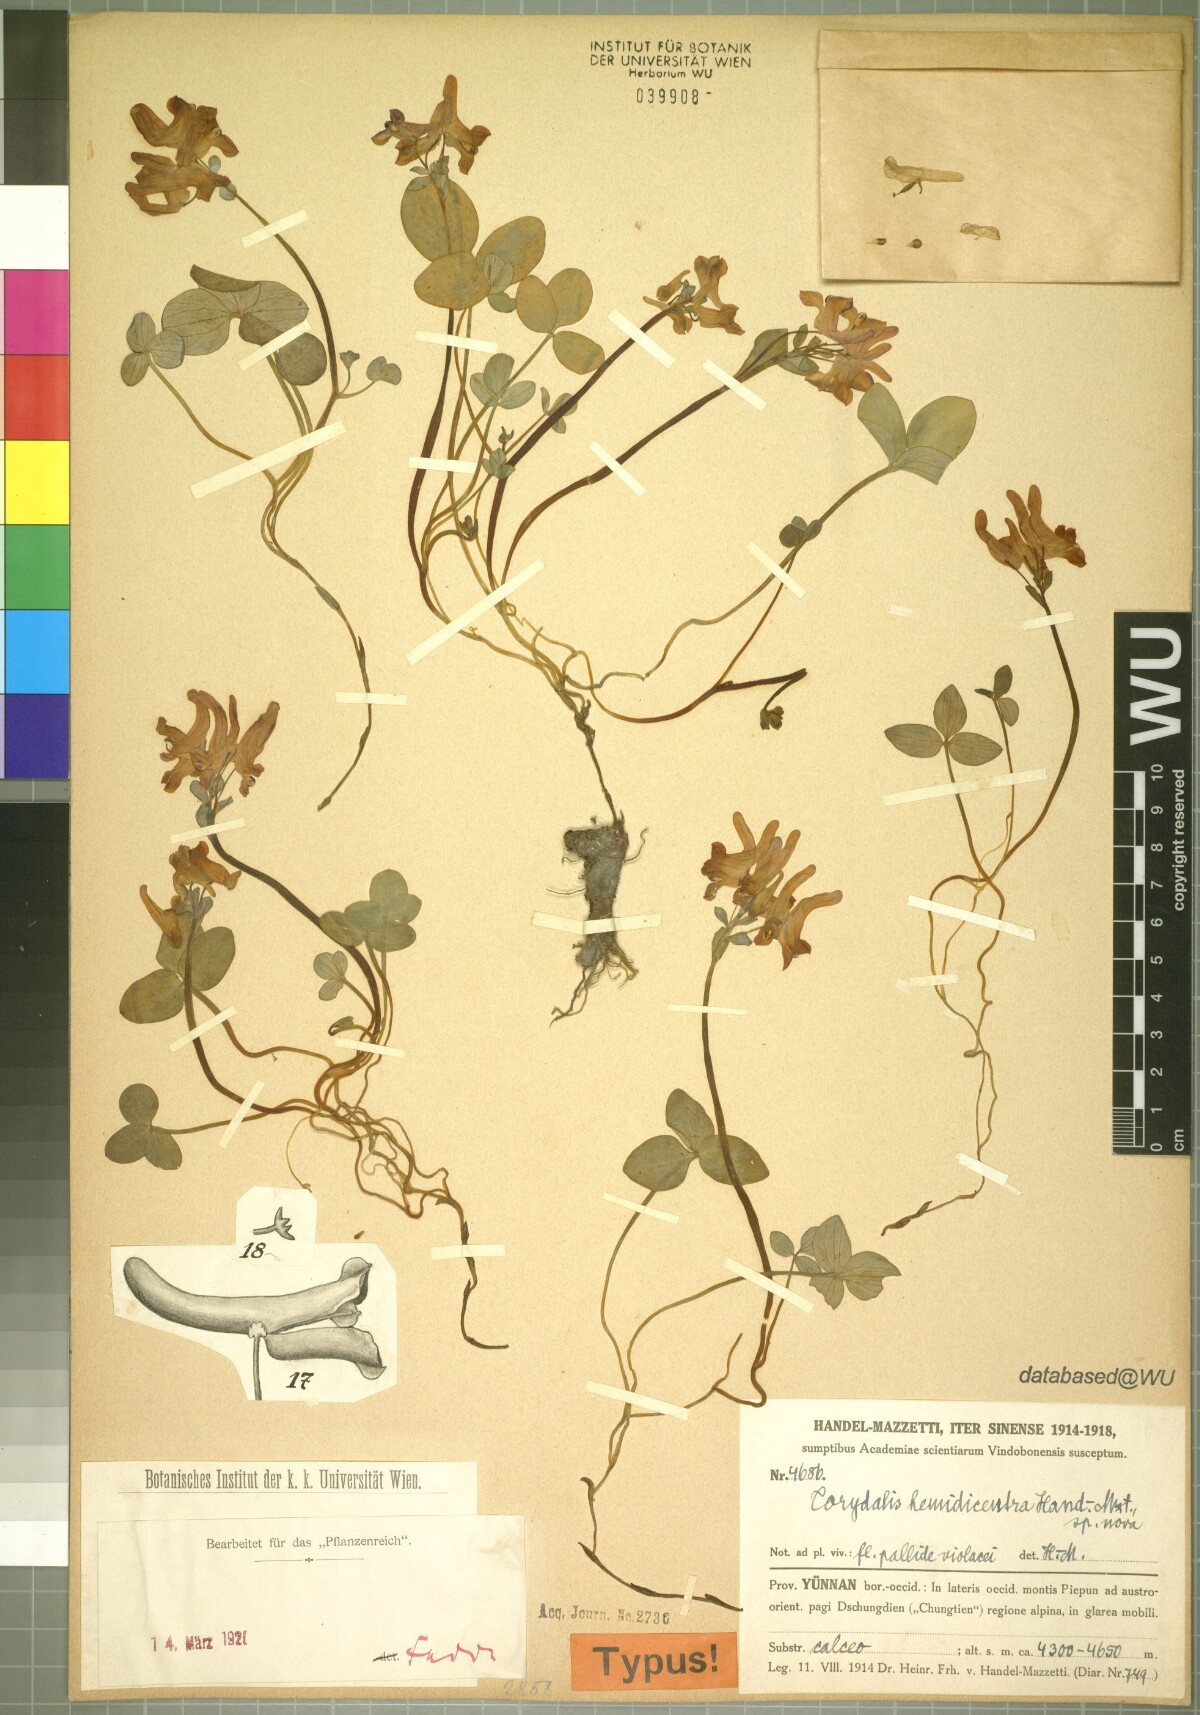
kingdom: Plantae
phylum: Tracheophyta
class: Magnoliopsida
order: Ranunculales
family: Papaveraceae
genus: Corydalis
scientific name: Corydalis hemidicentra
